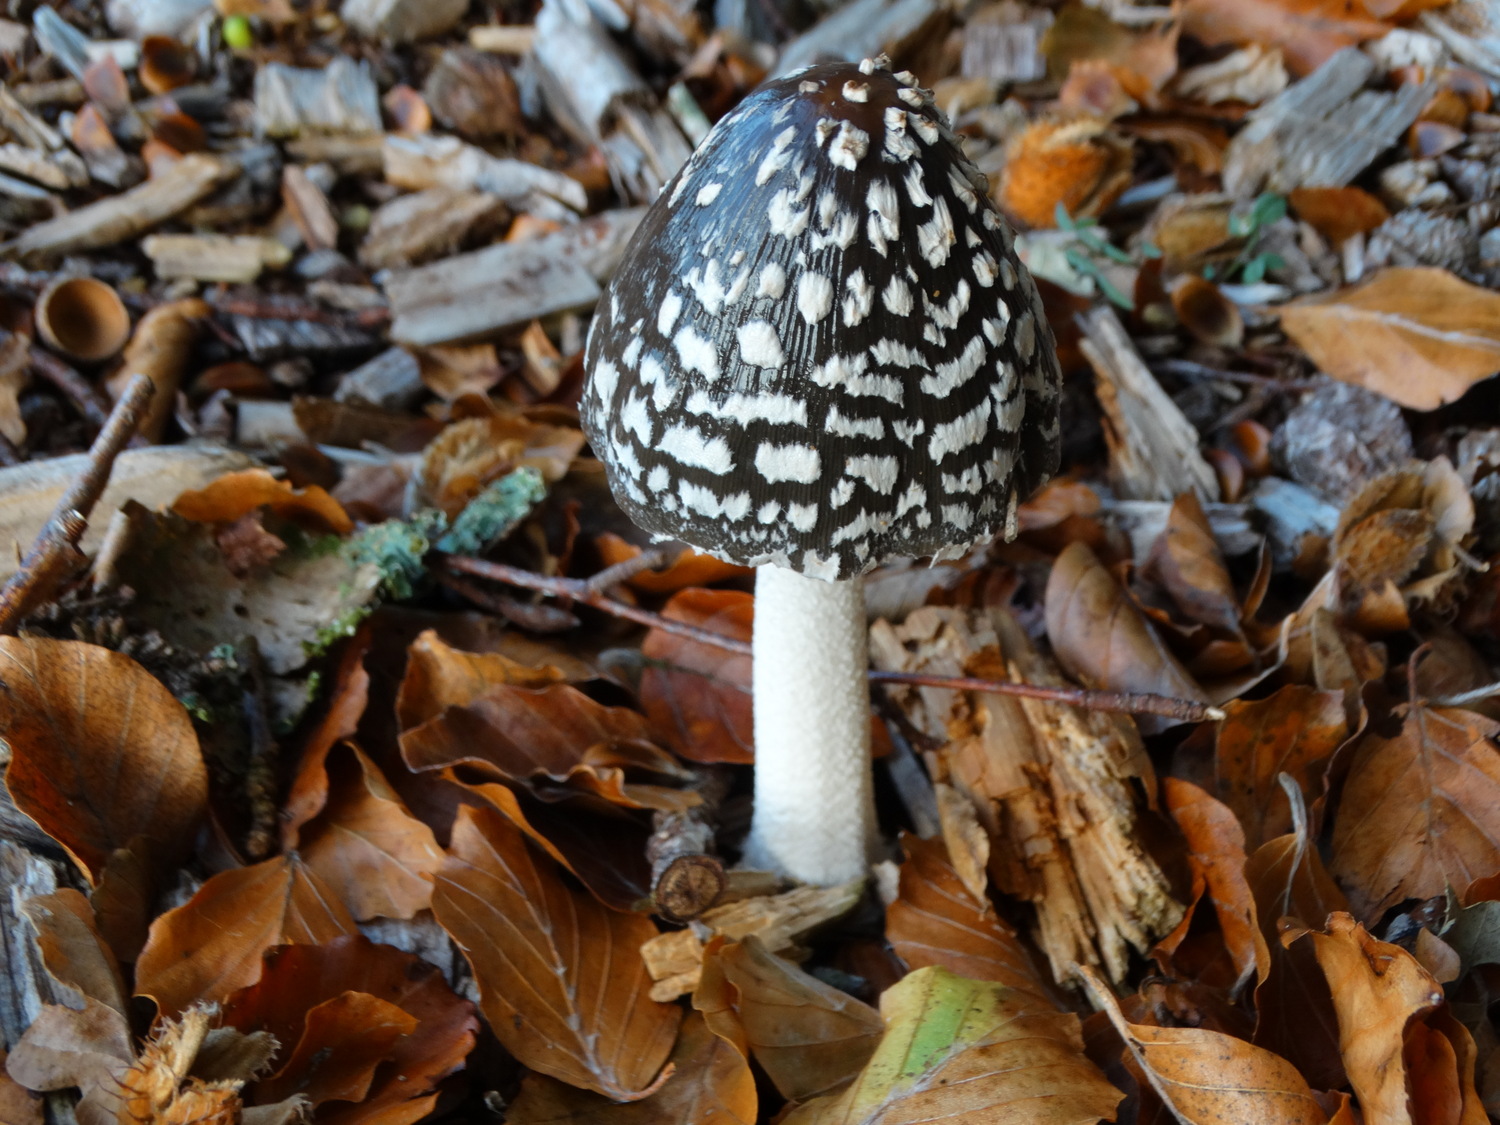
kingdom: Fungi
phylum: Basidiomycota
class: Agaricomycetes
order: Agaricales
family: Psathyrellaceae
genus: Coprinopsis
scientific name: Coprinopsis picacea
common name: skade-blækhat
